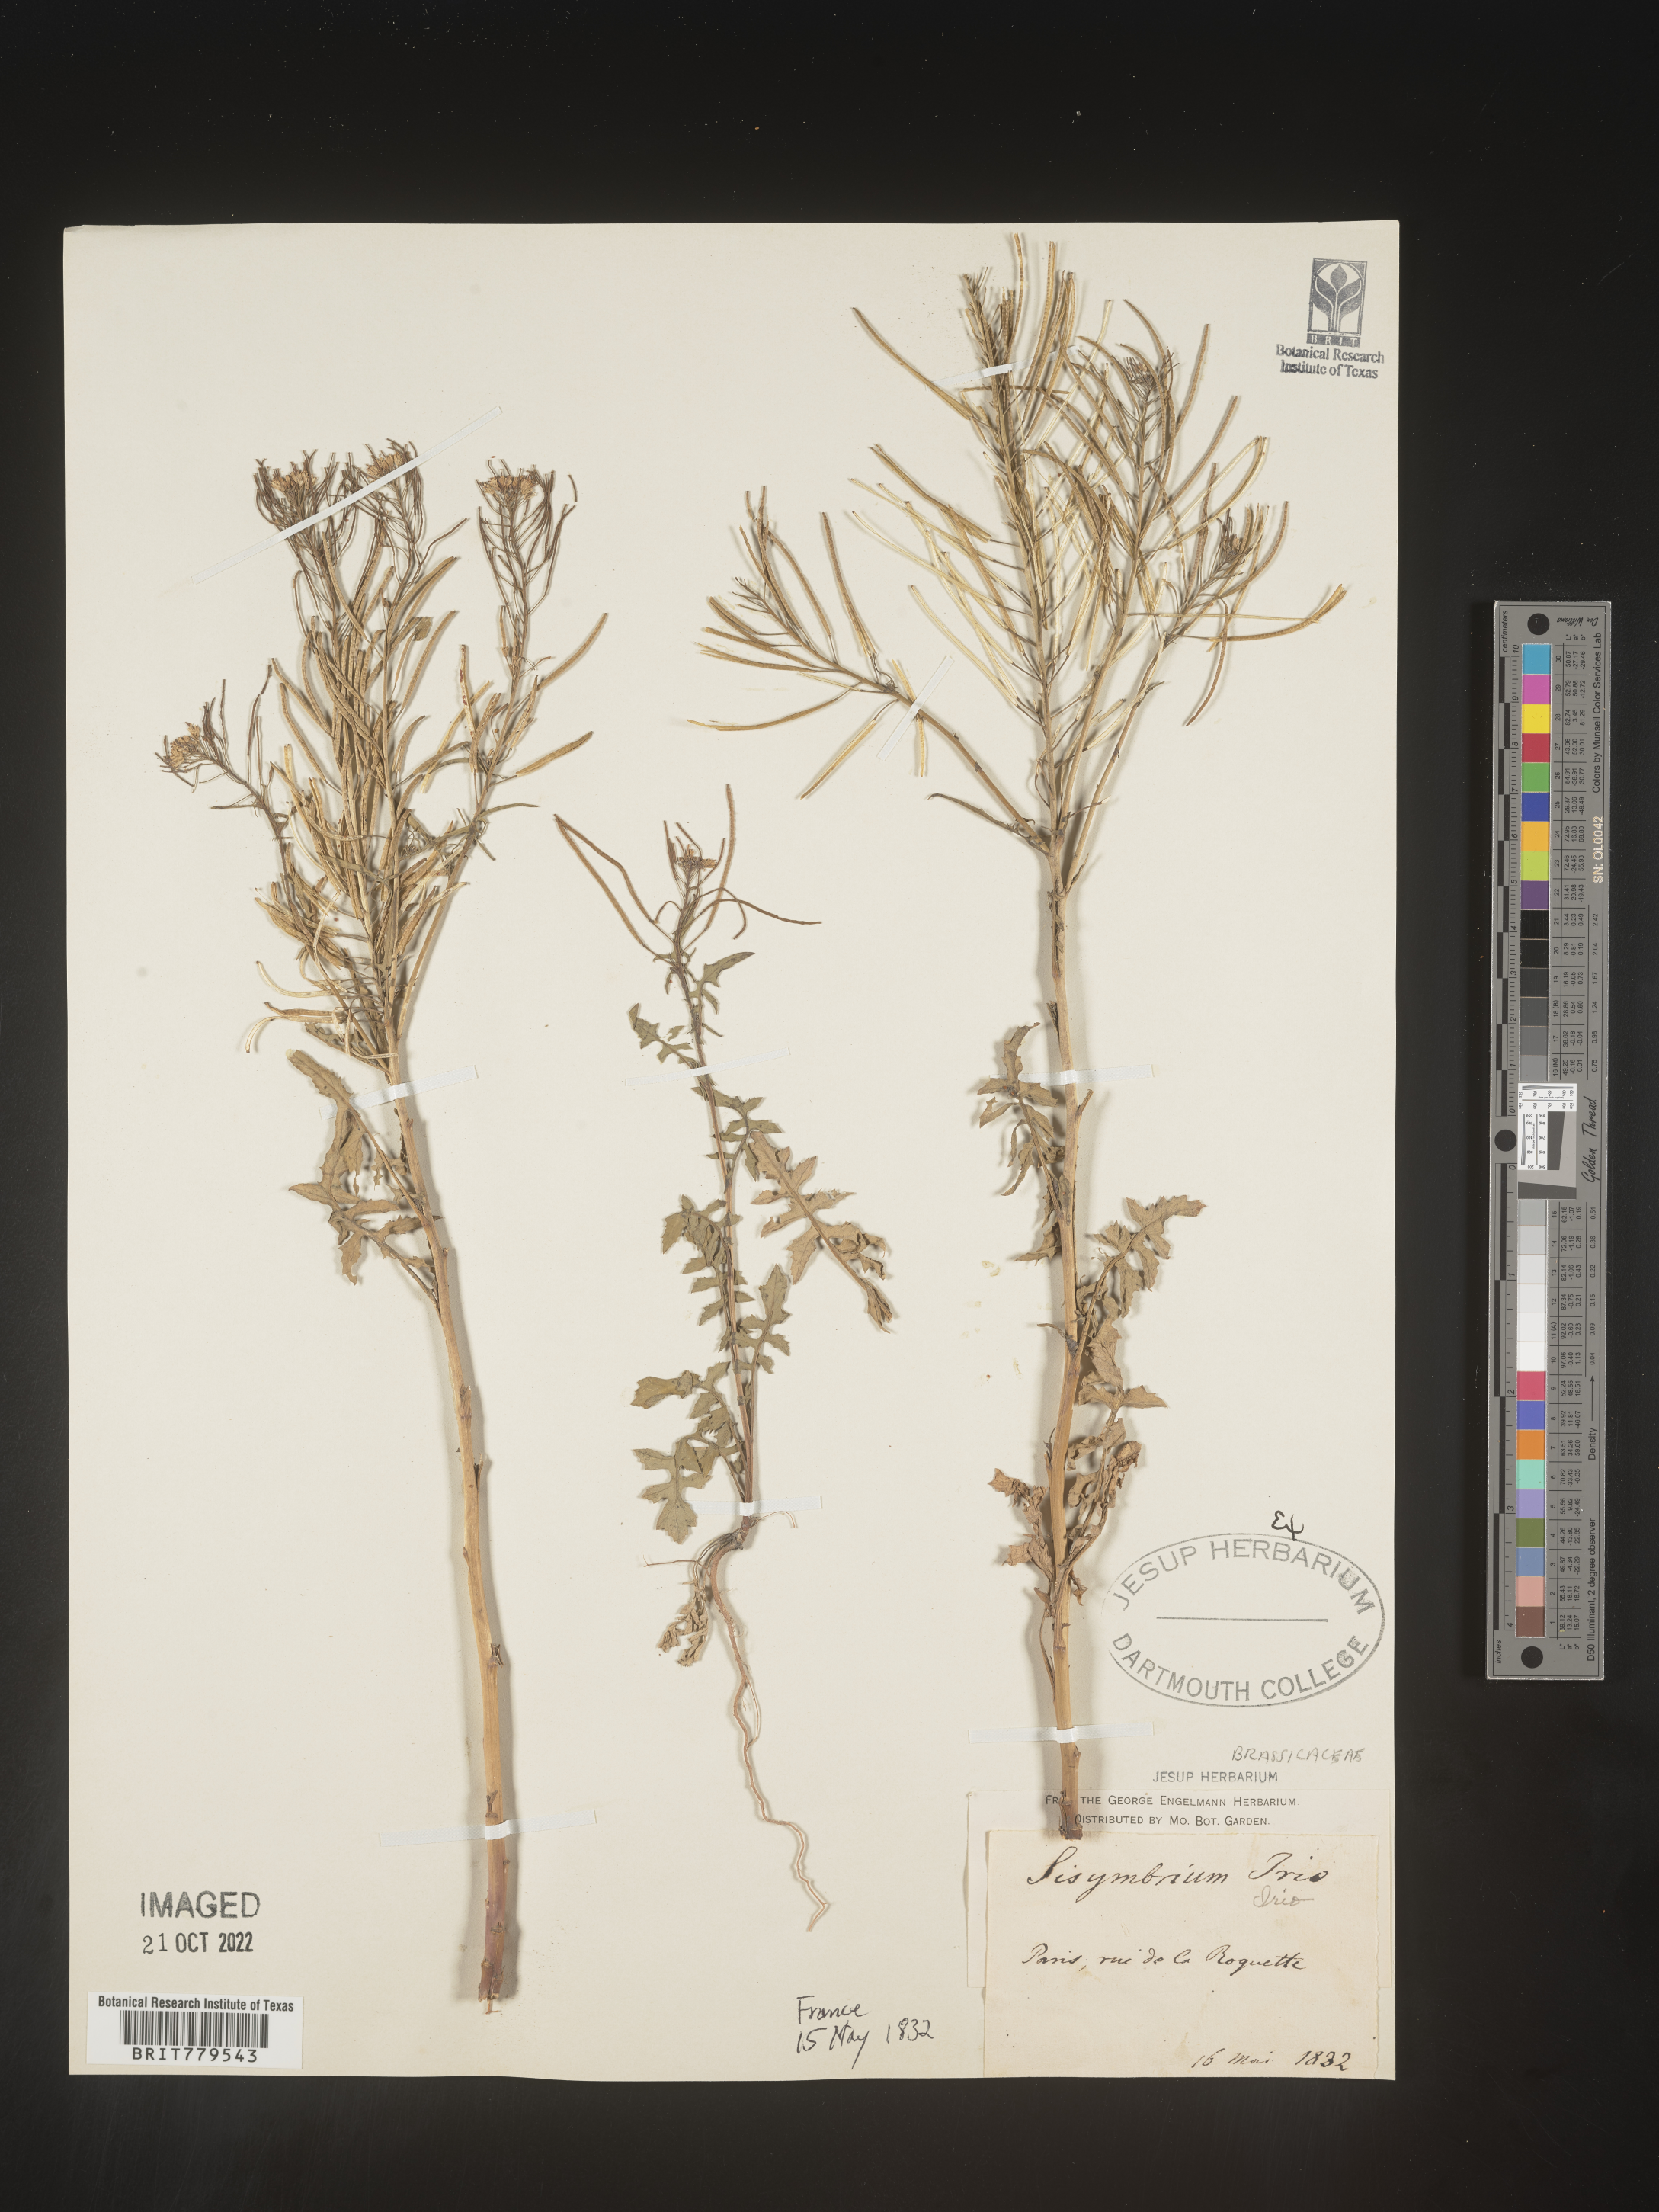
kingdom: Plantae
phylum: Tracheophyta
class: Magnoliopsida
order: Brassicales
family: Brassicaceae
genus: Sisymbrium
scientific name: Sisymbrium
